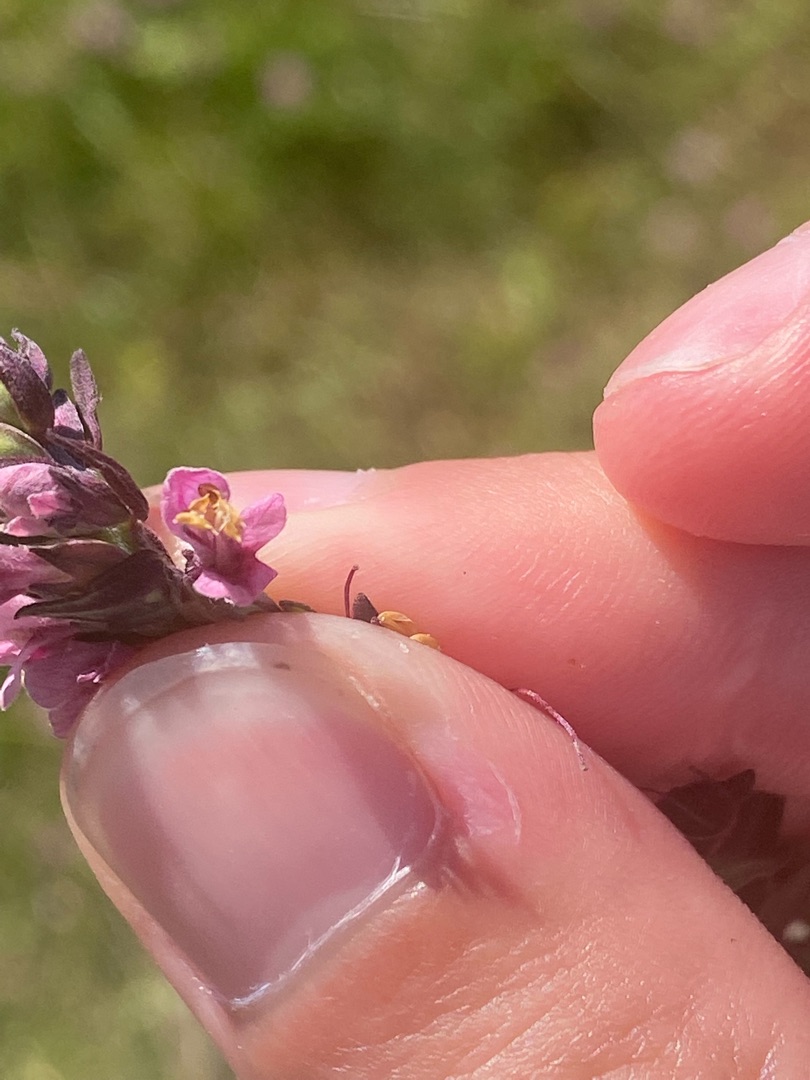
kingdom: Plantae
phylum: Tracheophyta
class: Magnoliopsida
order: Lamiales
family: Orobanchaceae
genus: Odontites
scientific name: Odontites vulgaris
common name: Høst-rødtop
